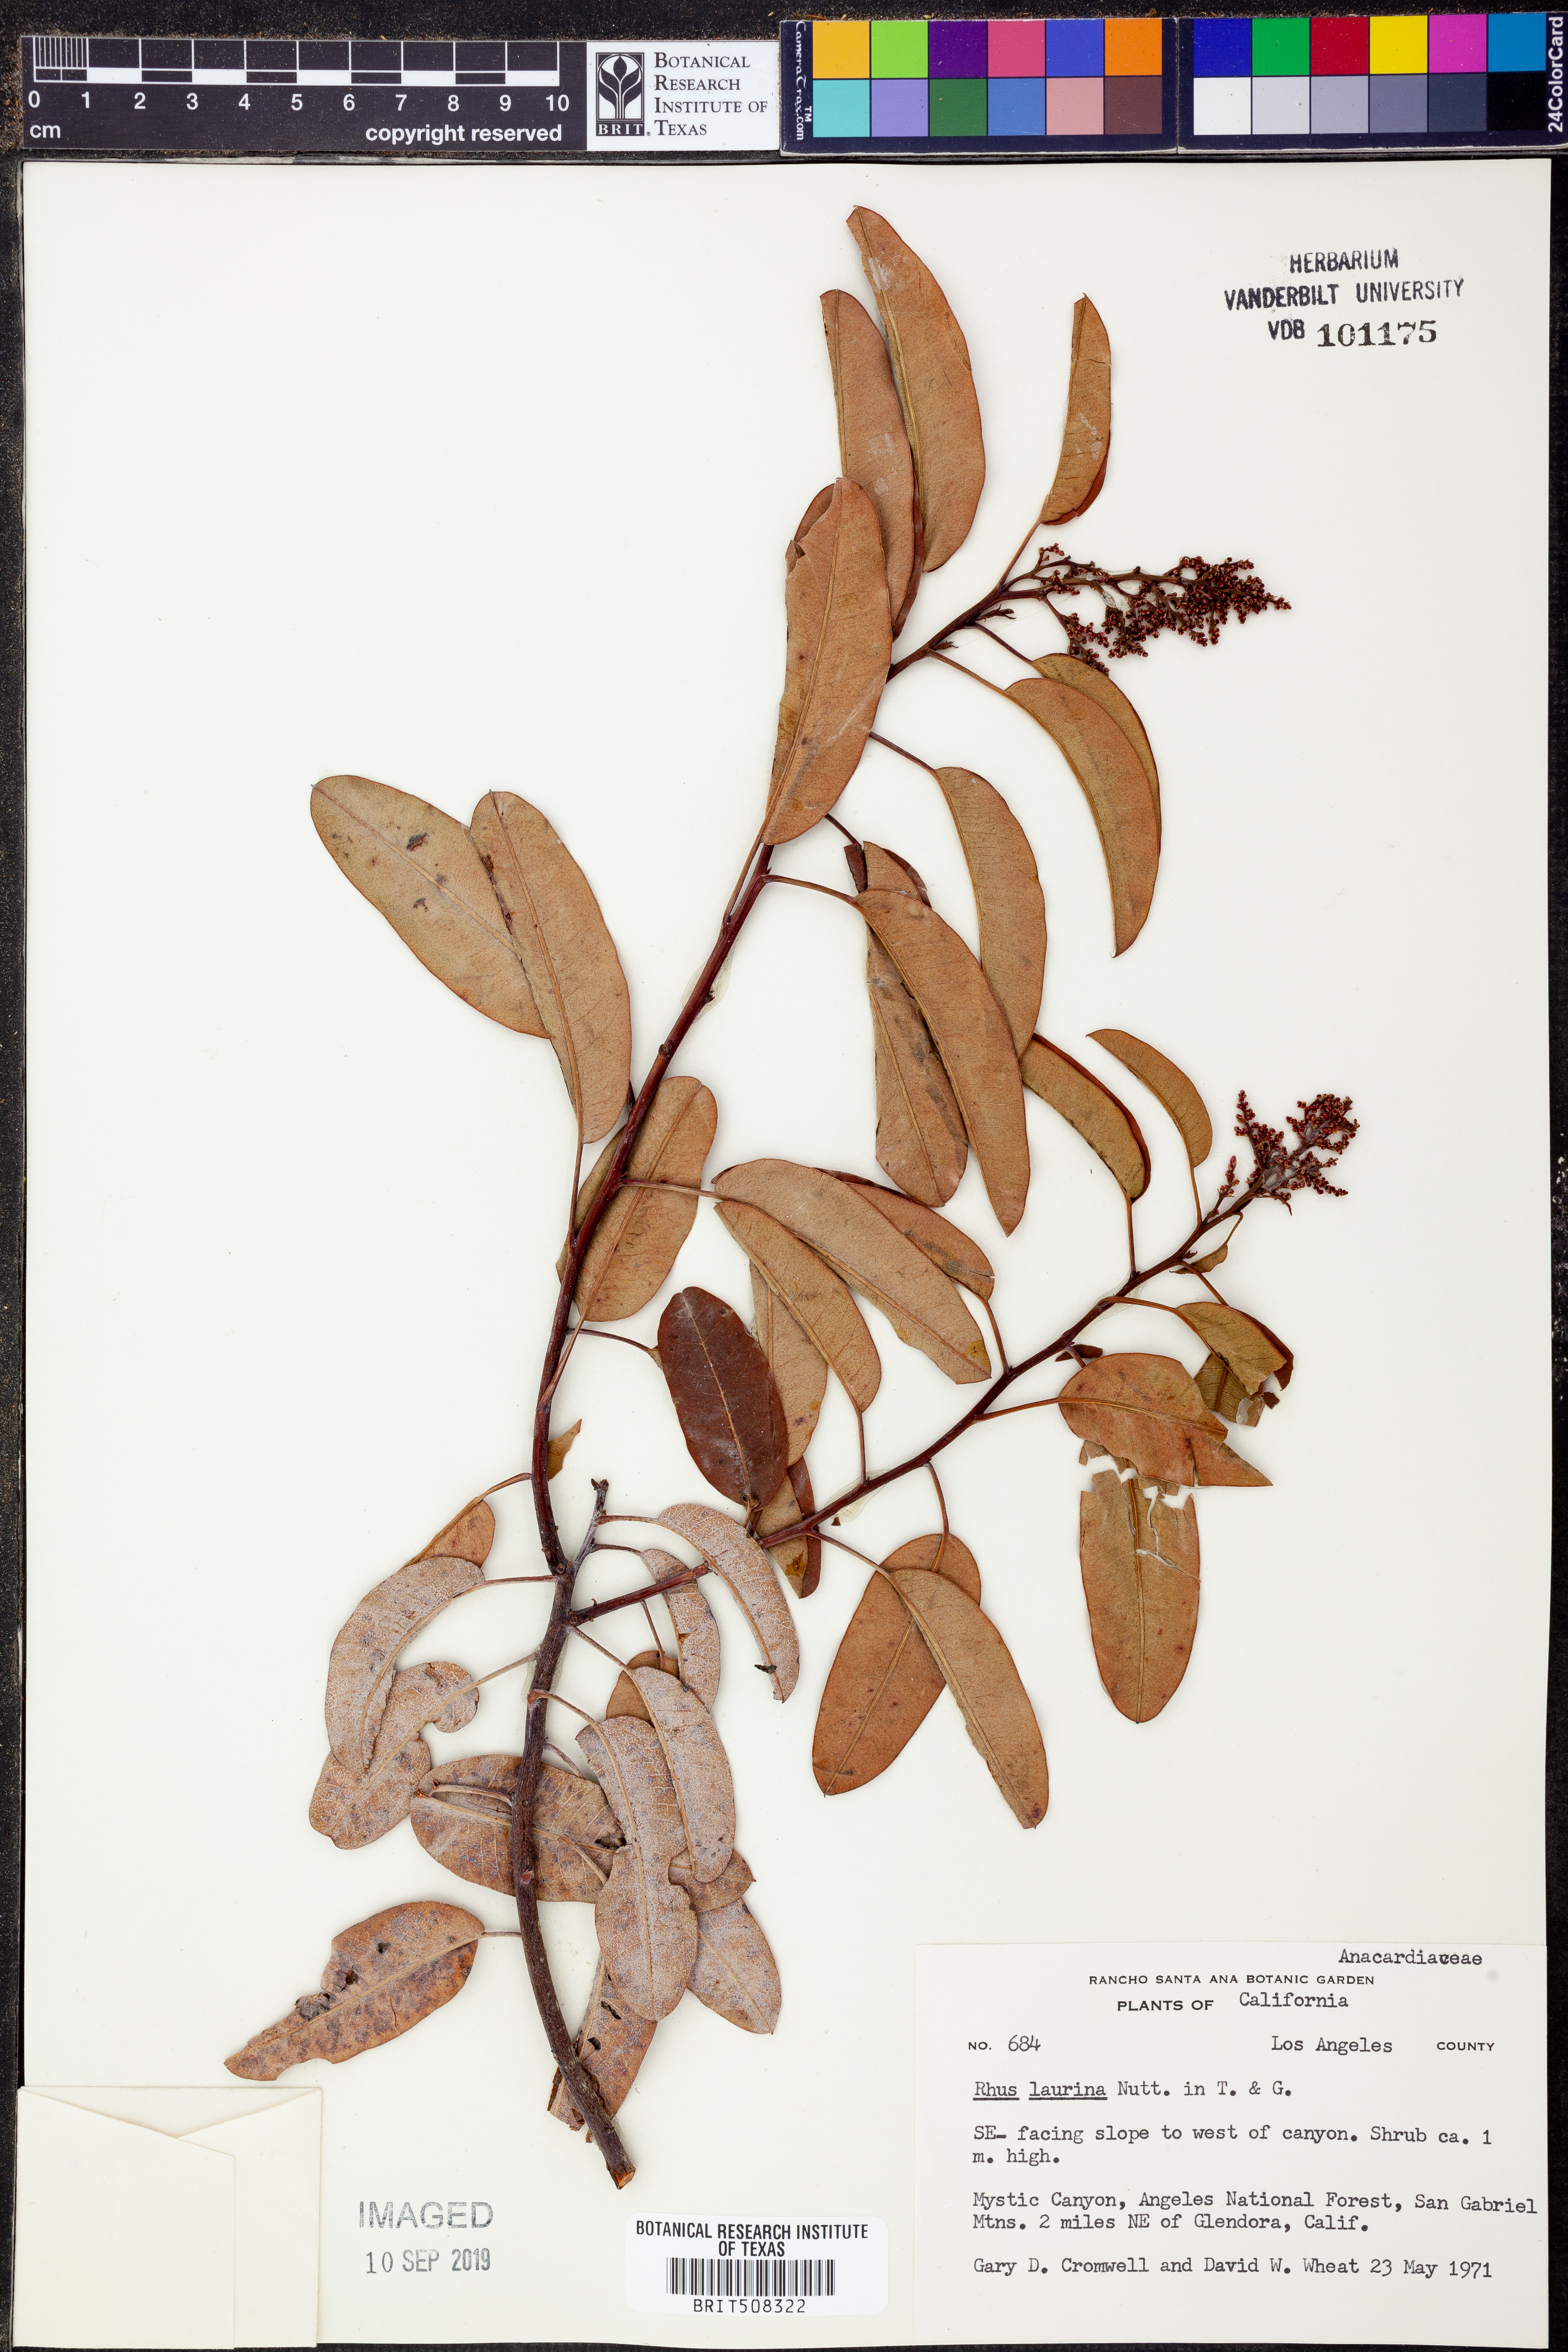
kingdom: Plantae
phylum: Tracheophyta
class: Magnoliopsida
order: Sapindales
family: Anacardiaceae
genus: Malosma
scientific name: Malosma laurina
